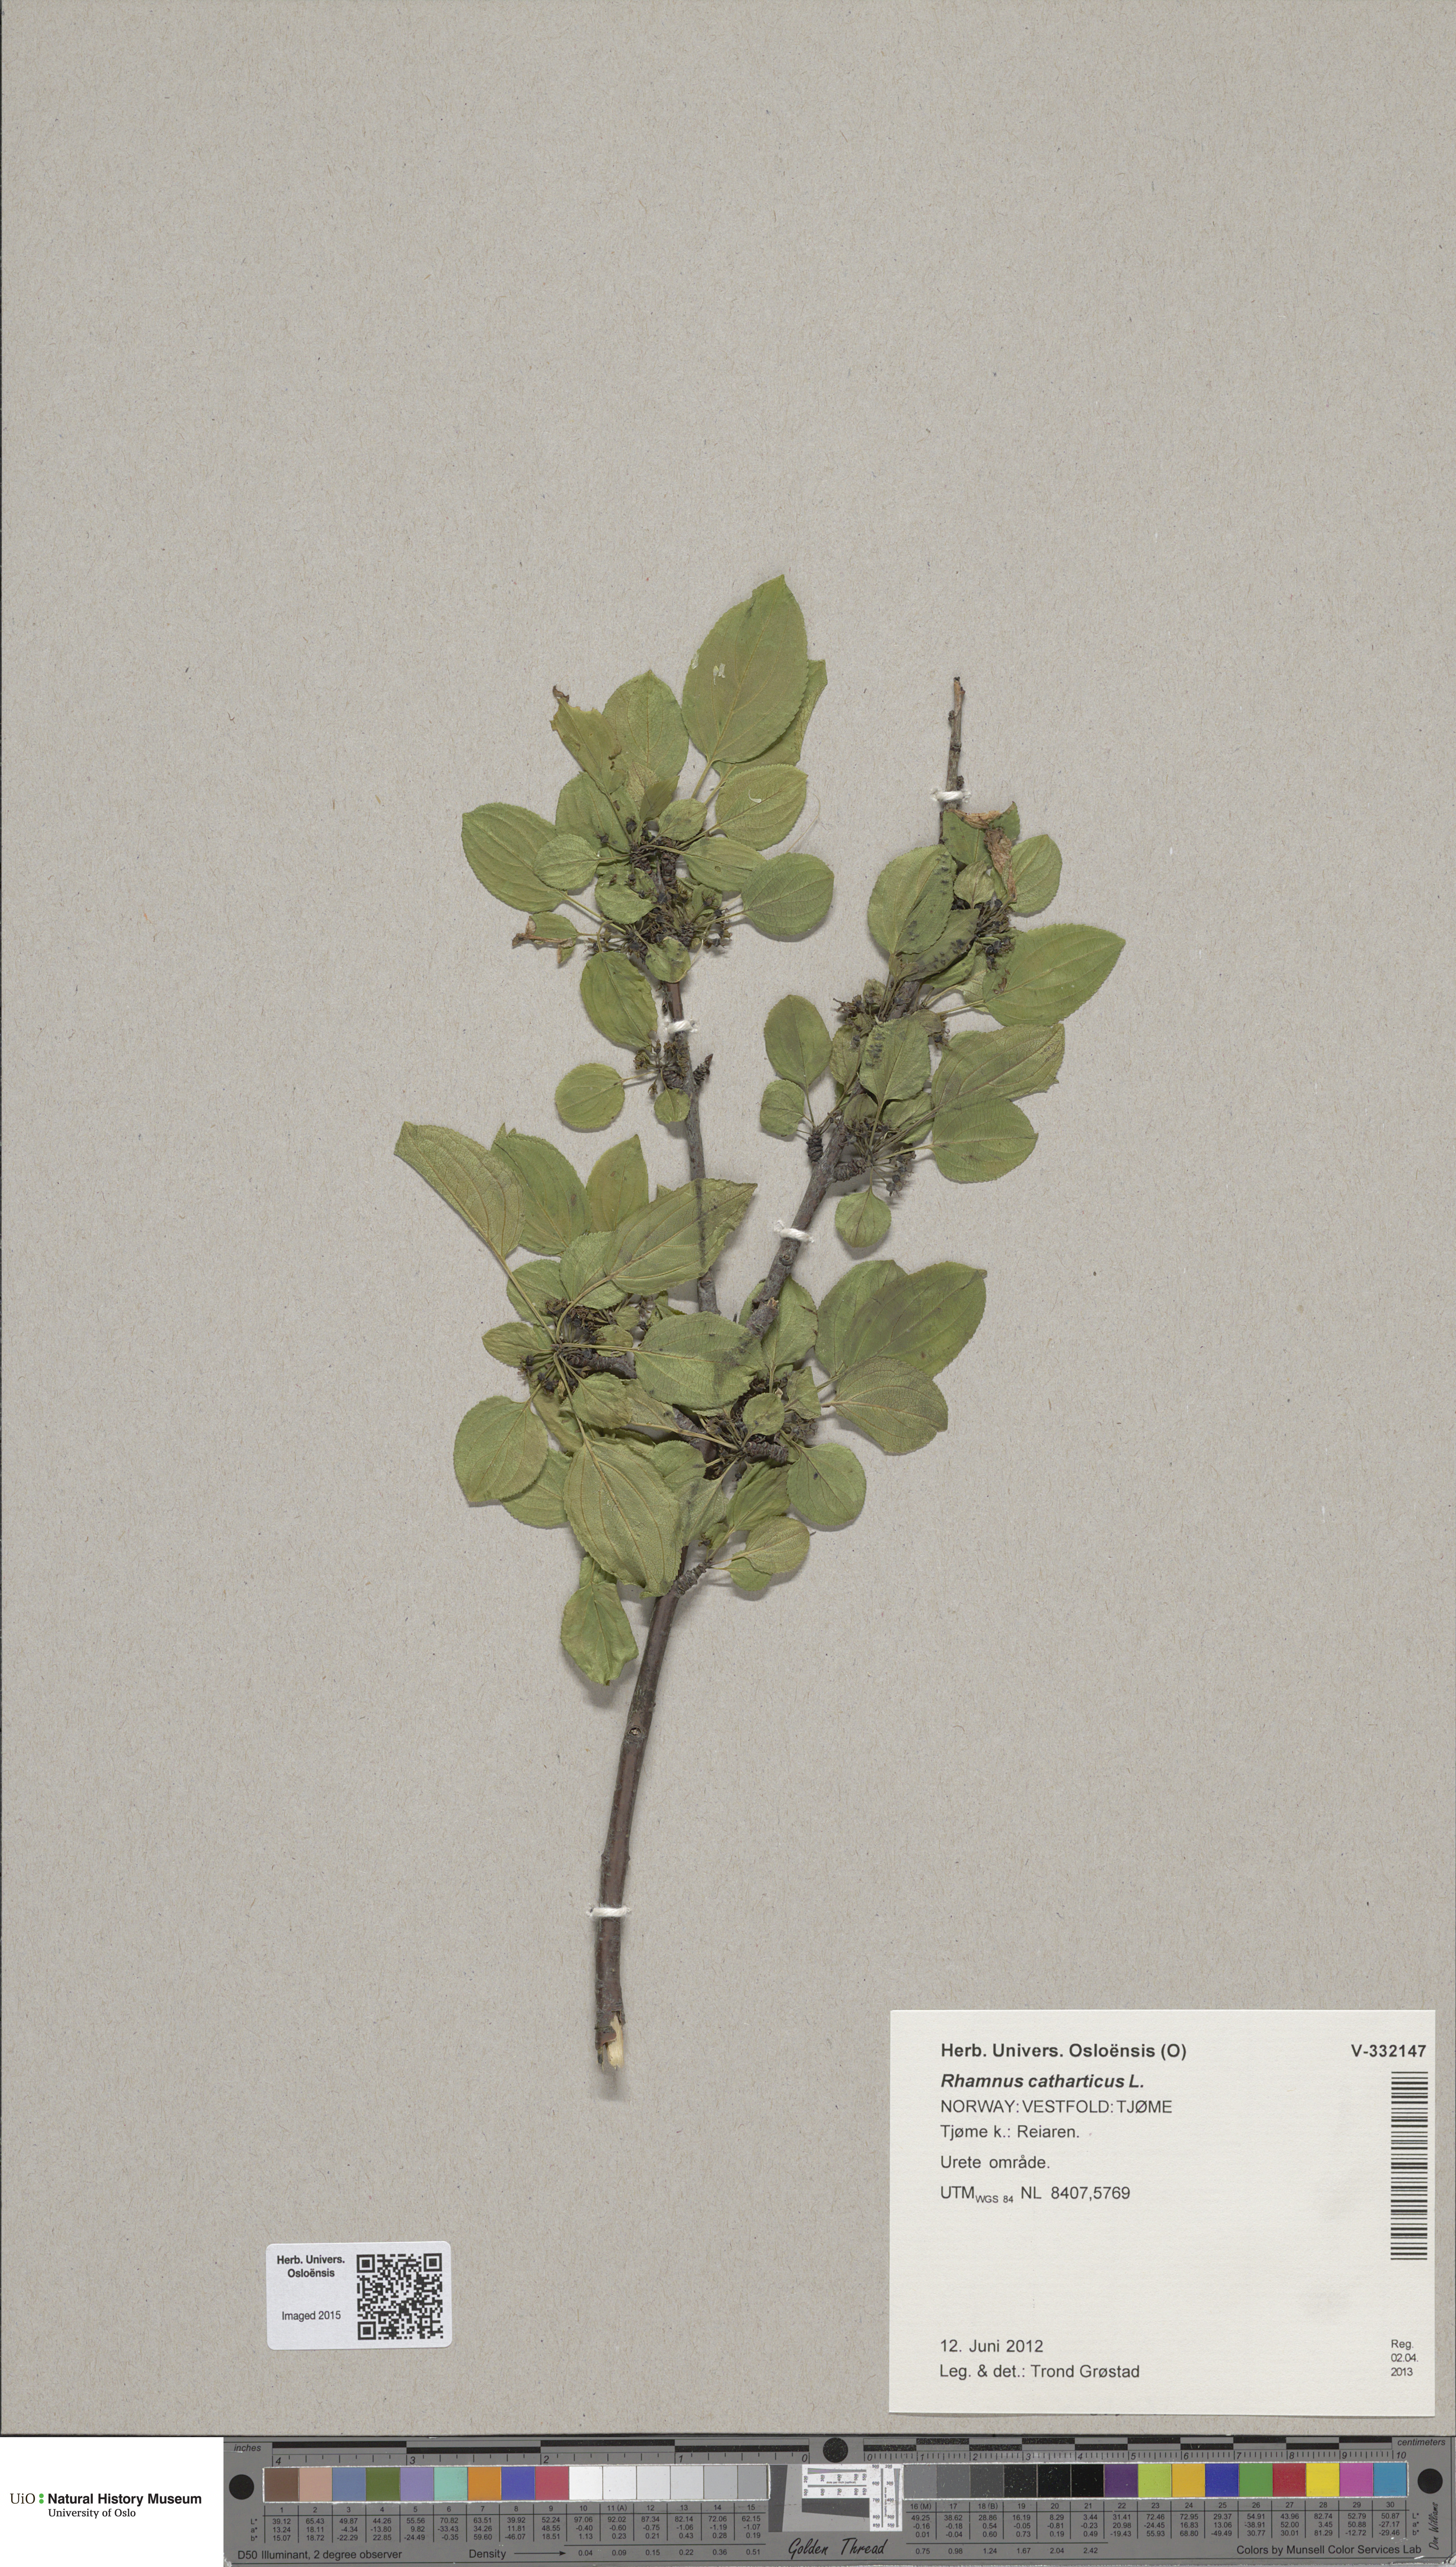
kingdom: Plantae
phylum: Tracheophyta
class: Magnoliopsida
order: Rosales
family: Rhamnaceae
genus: Rhamnus
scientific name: Rhamnus cathartica
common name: Common buckthorn
